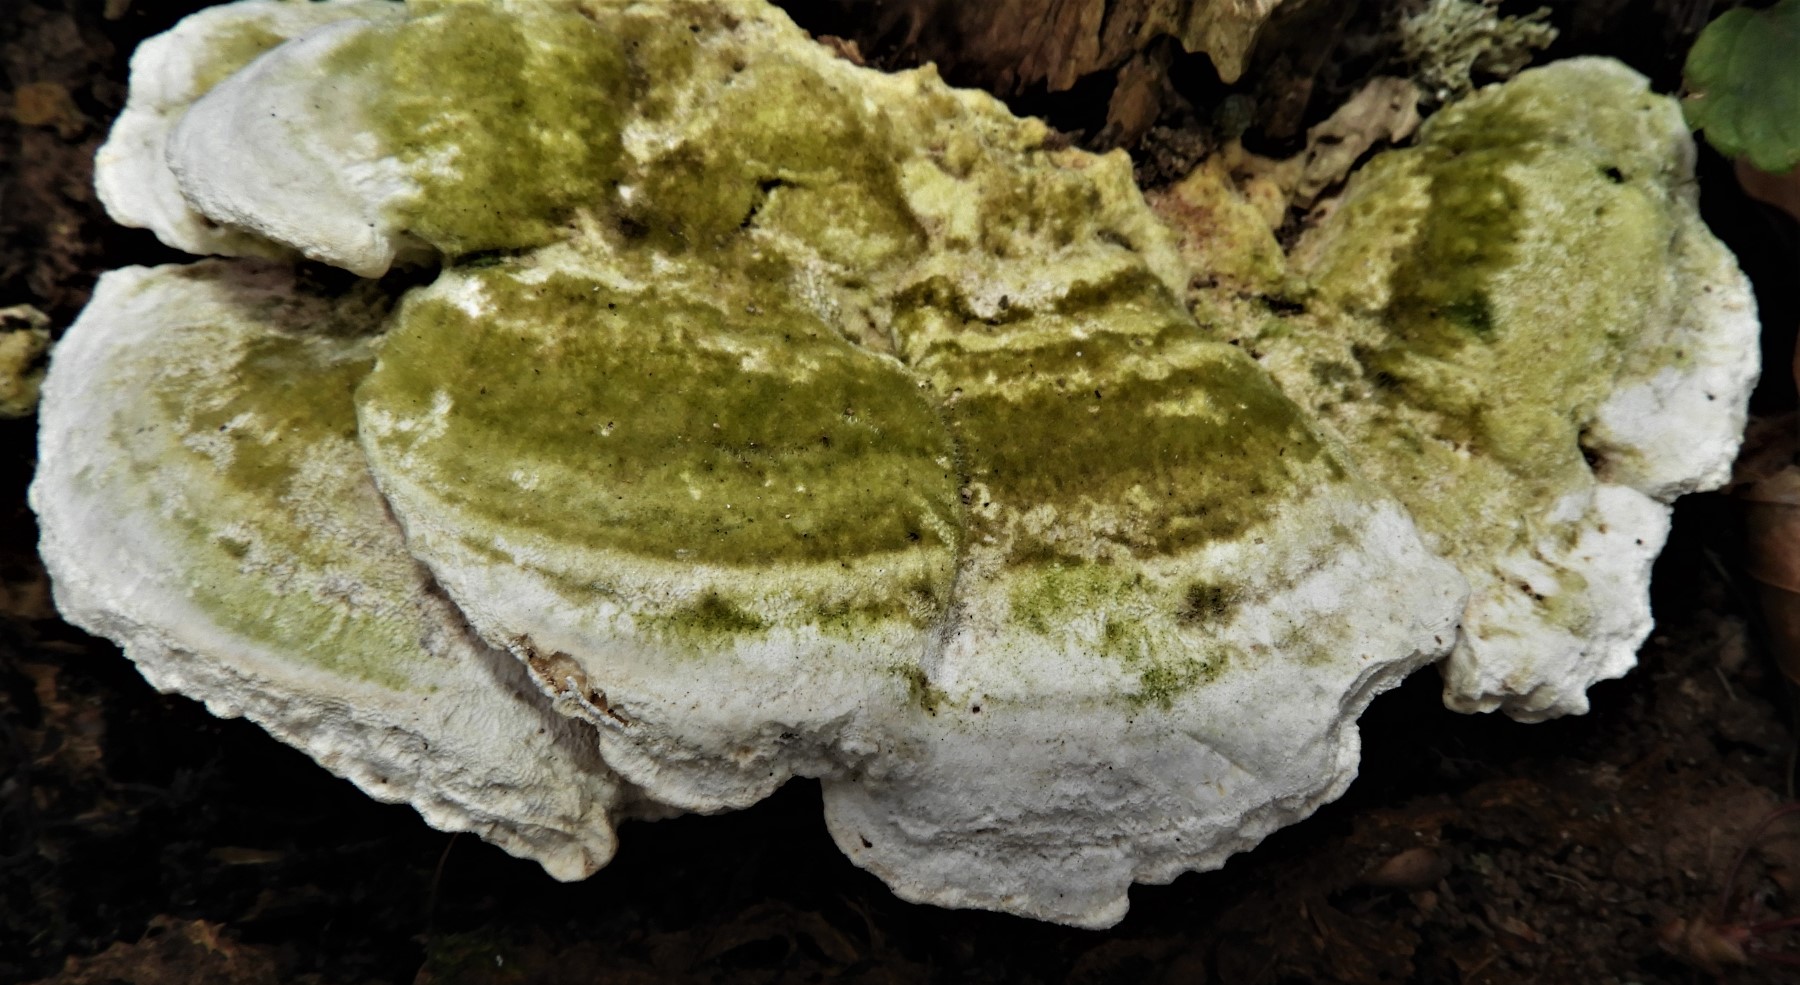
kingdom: Fungi
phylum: Basidiomycota
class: Agaricomycetes
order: Polyporales
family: Polyporaceae
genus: Trametes
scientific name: Trametes gibbosa
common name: puklet læderporesvamp
